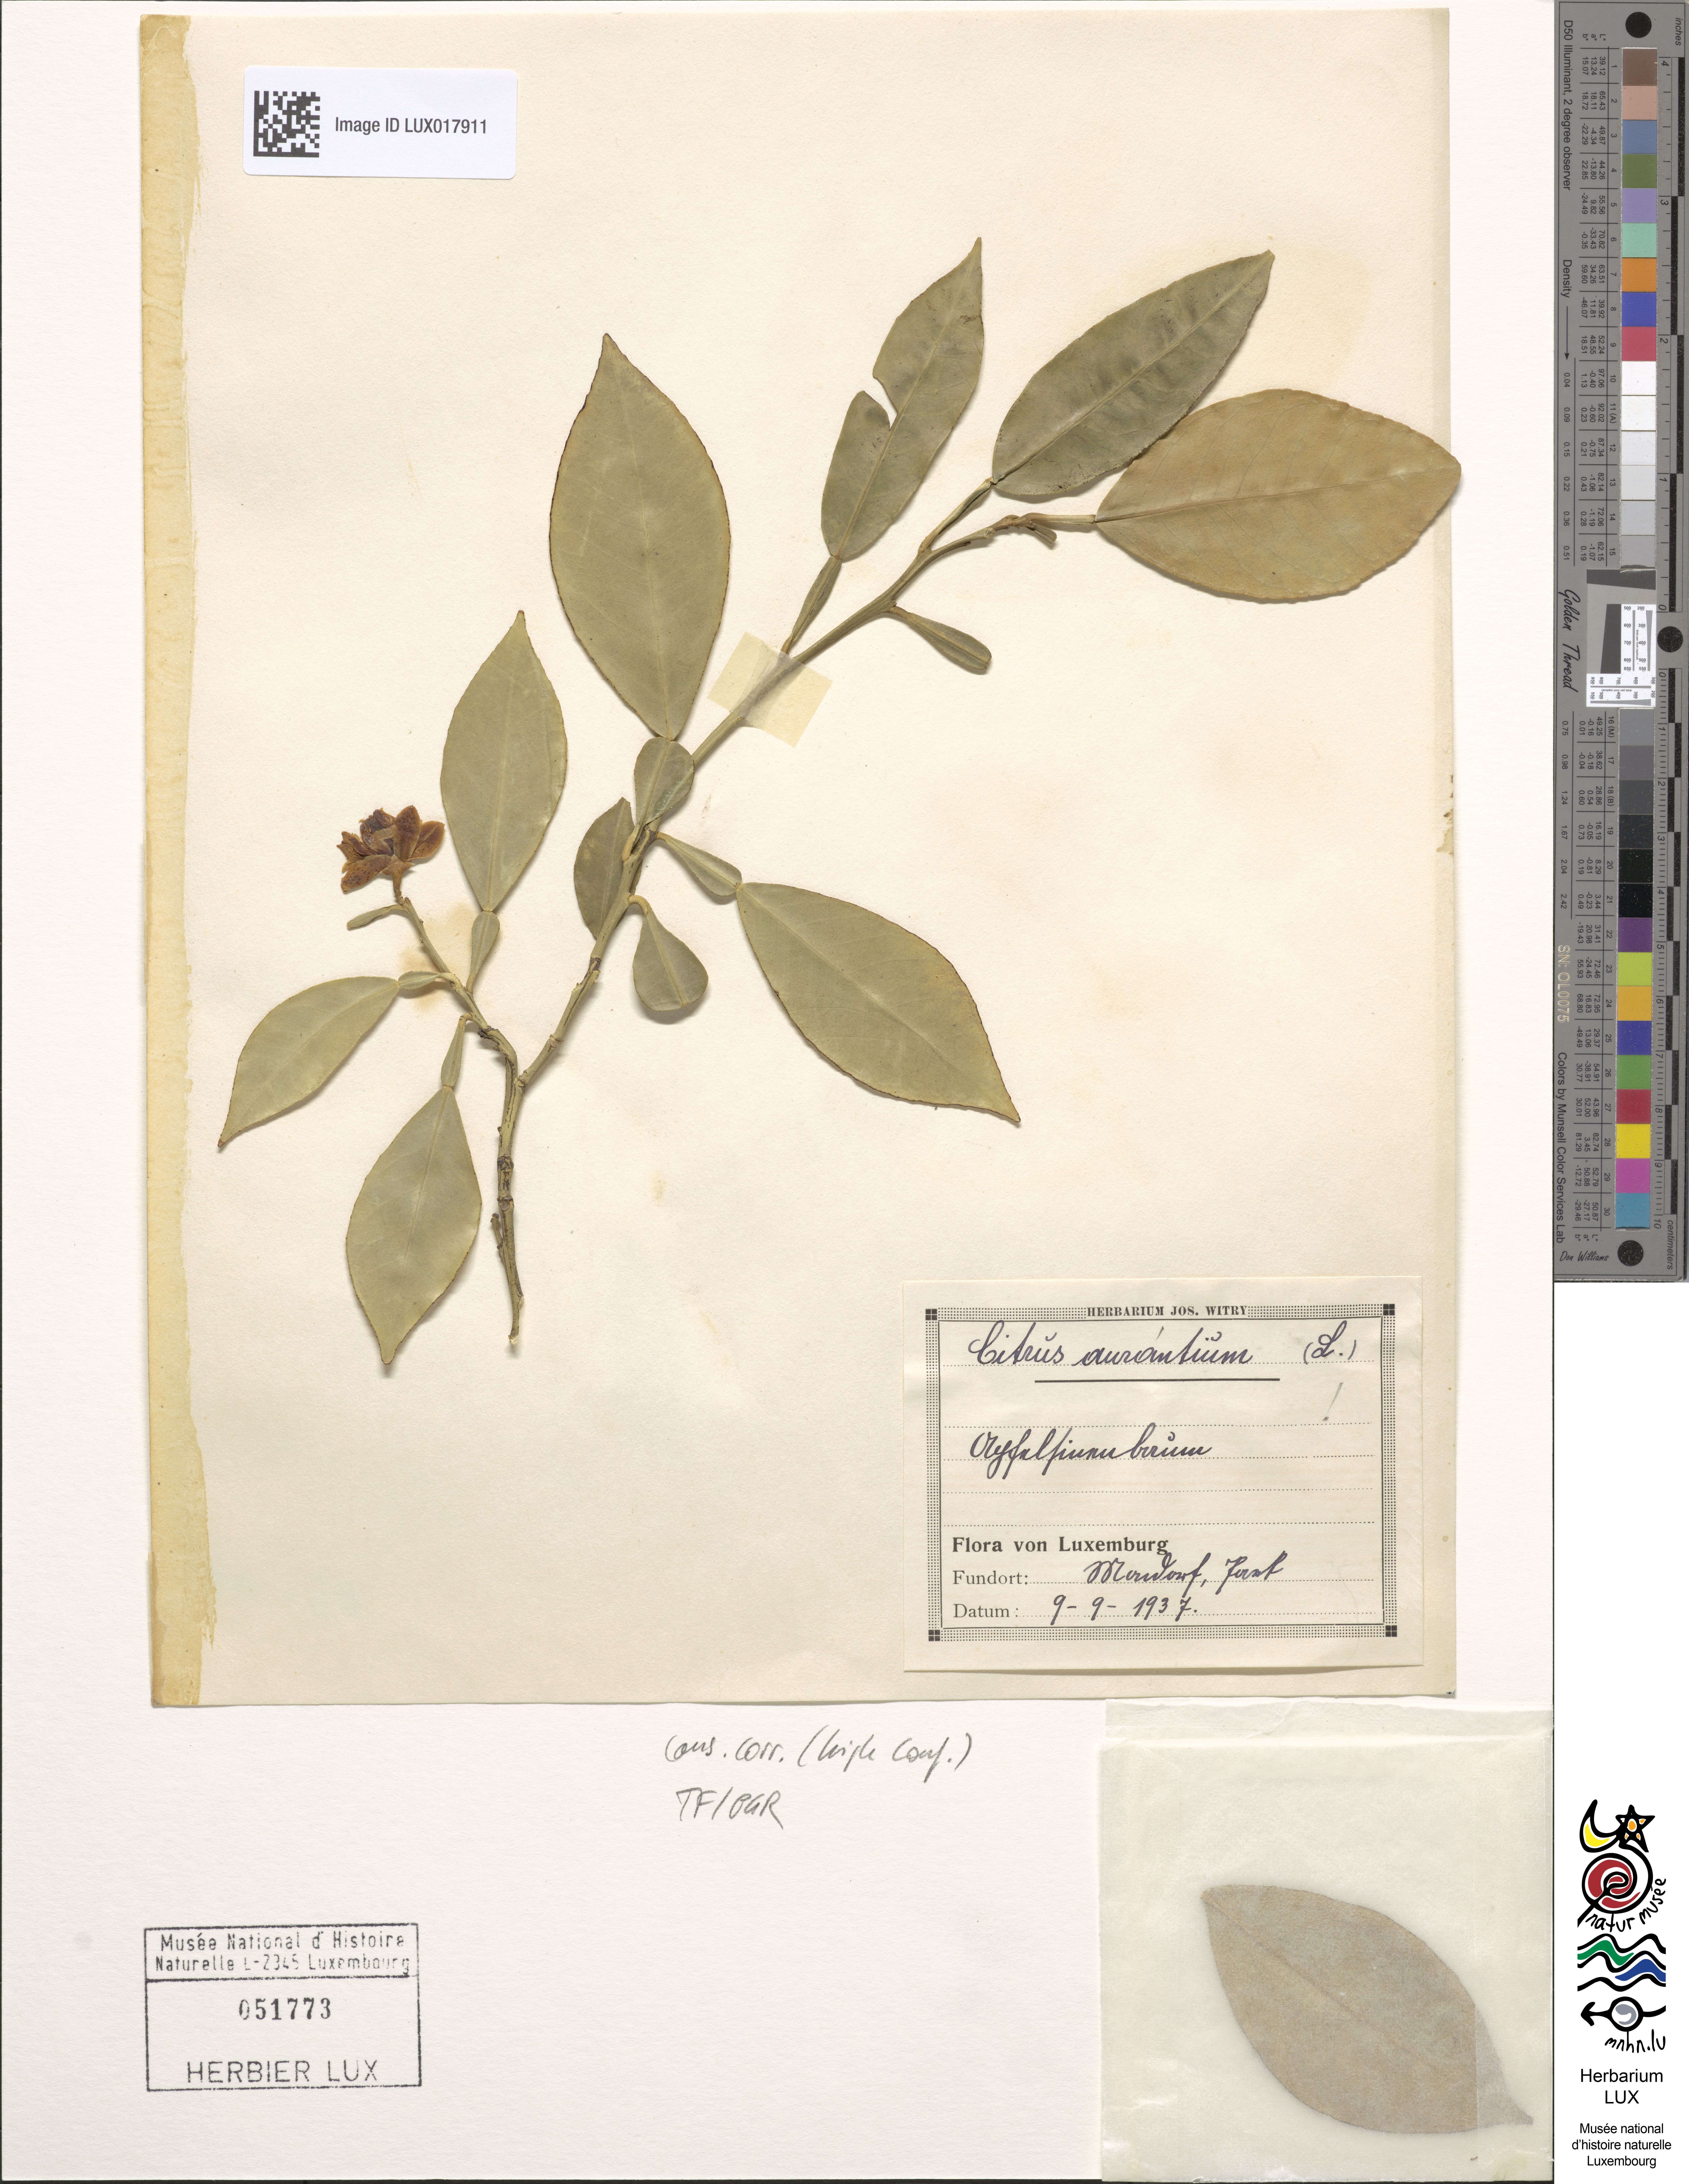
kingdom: Plantae
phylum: Tracheophyta
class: Magnoliopsida
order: Sapindales
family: Rutaceae
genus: Citrus
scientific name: Citrus aurantium
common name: Sour orange
